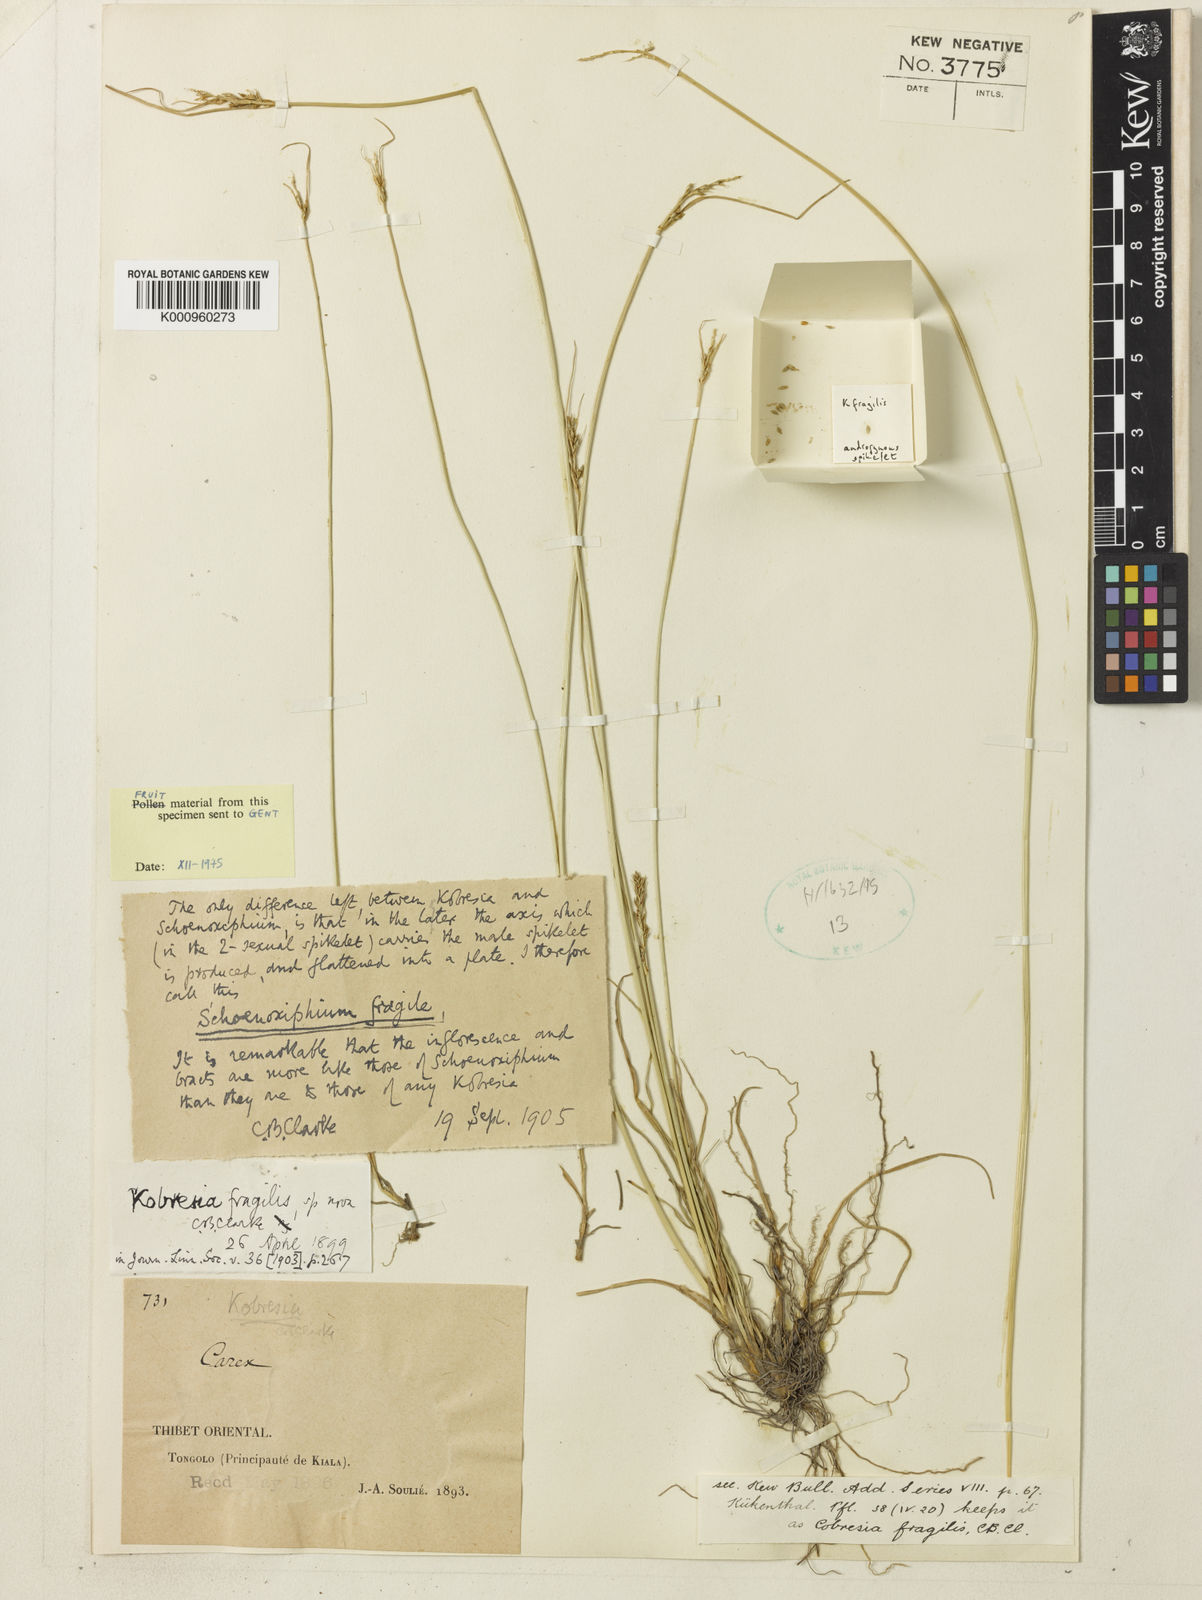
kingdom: Plantae
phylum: Tracheophyta
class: Liliopsida
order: Poales
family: Cyperaceae
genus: Carex
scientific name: Carex bonatiana
